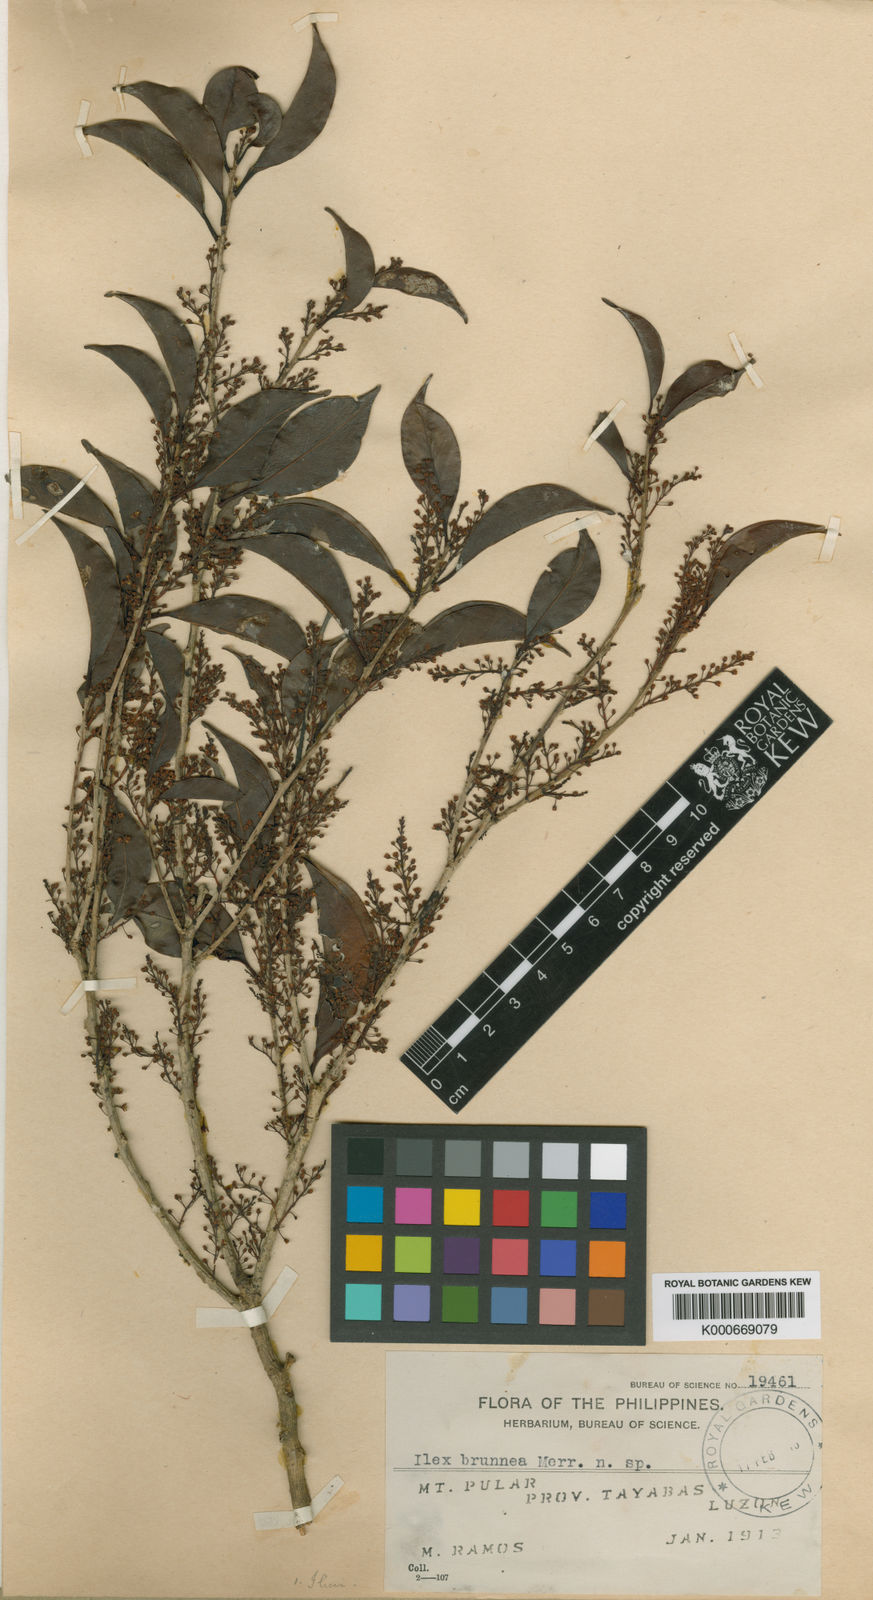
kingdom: Plantae
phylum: Tracheophyta
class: Magnoliopsida
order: Aquifoliales
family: Aquifoliaceae
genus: Ilex
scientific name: Ilex malaccensis
